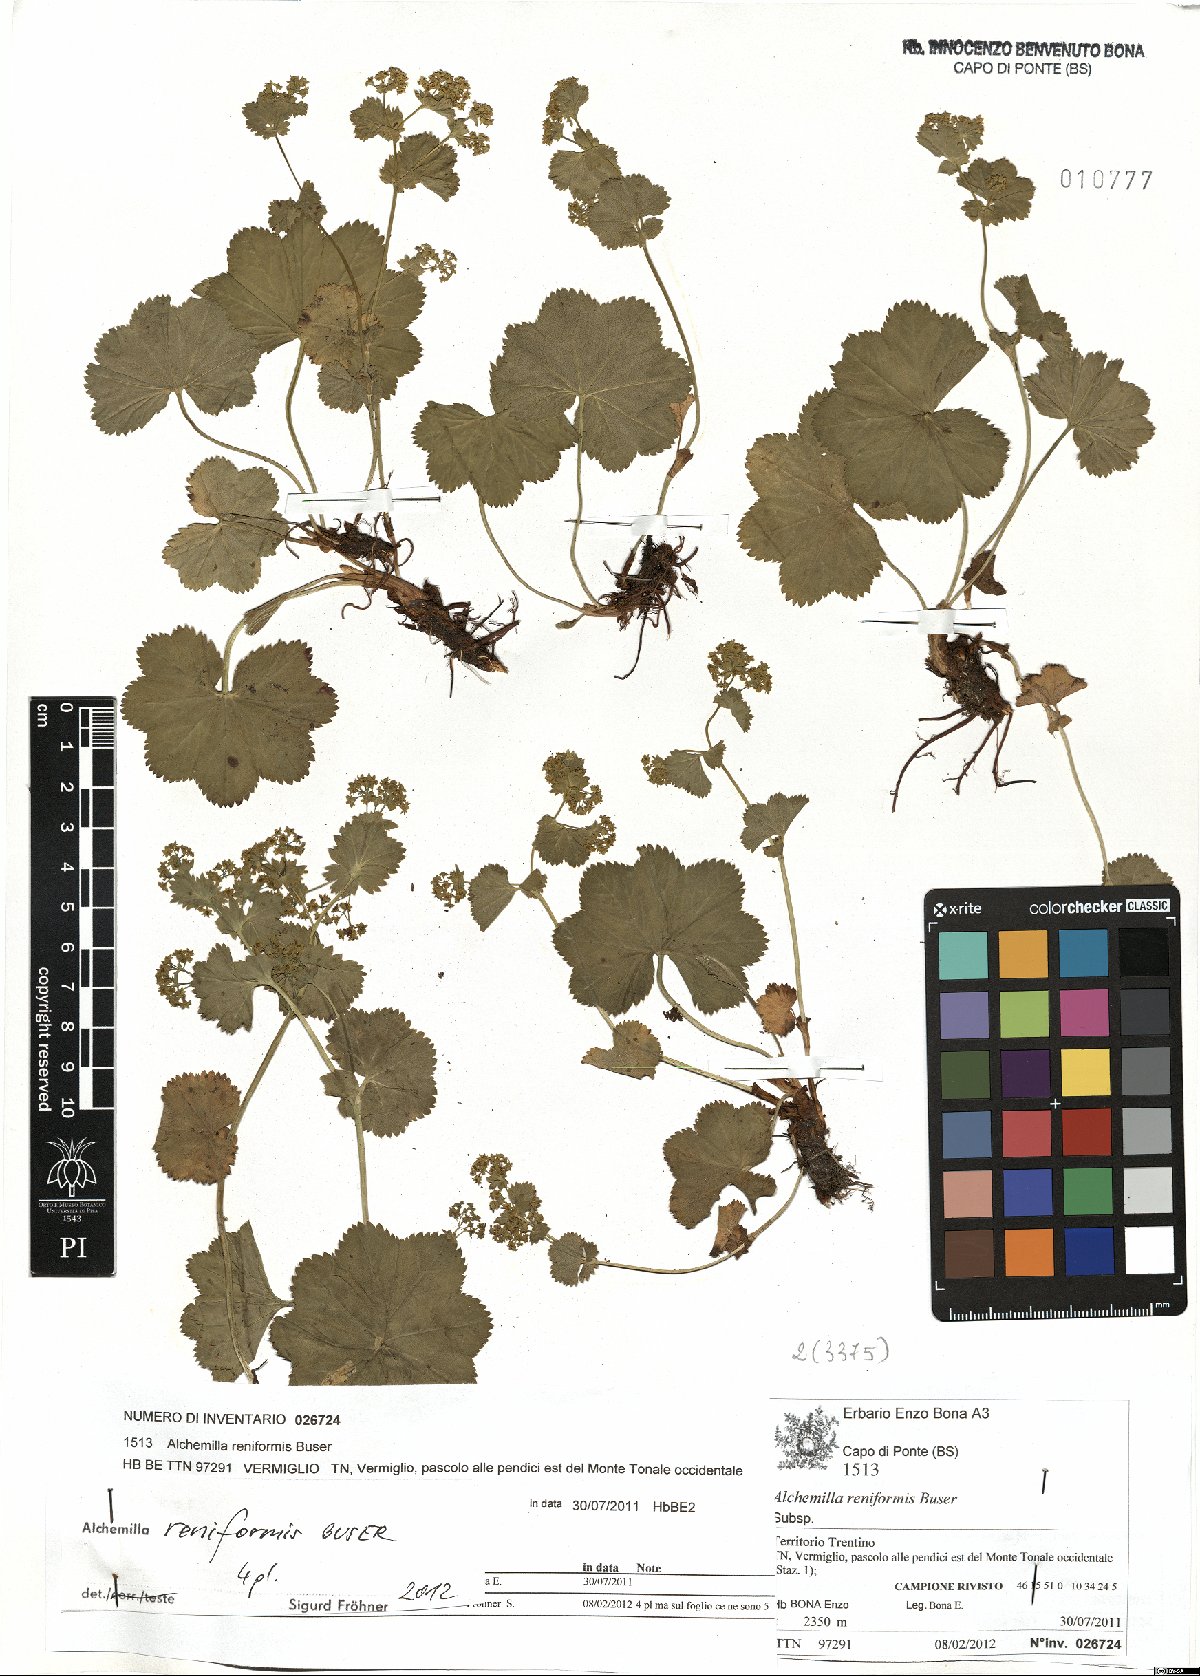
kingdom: Plantae
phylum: Tracheophyta
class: Magnoliopsida
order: Rosales
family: Rosaceae
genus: Alchemilla
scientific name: Alchemilla reniformis
